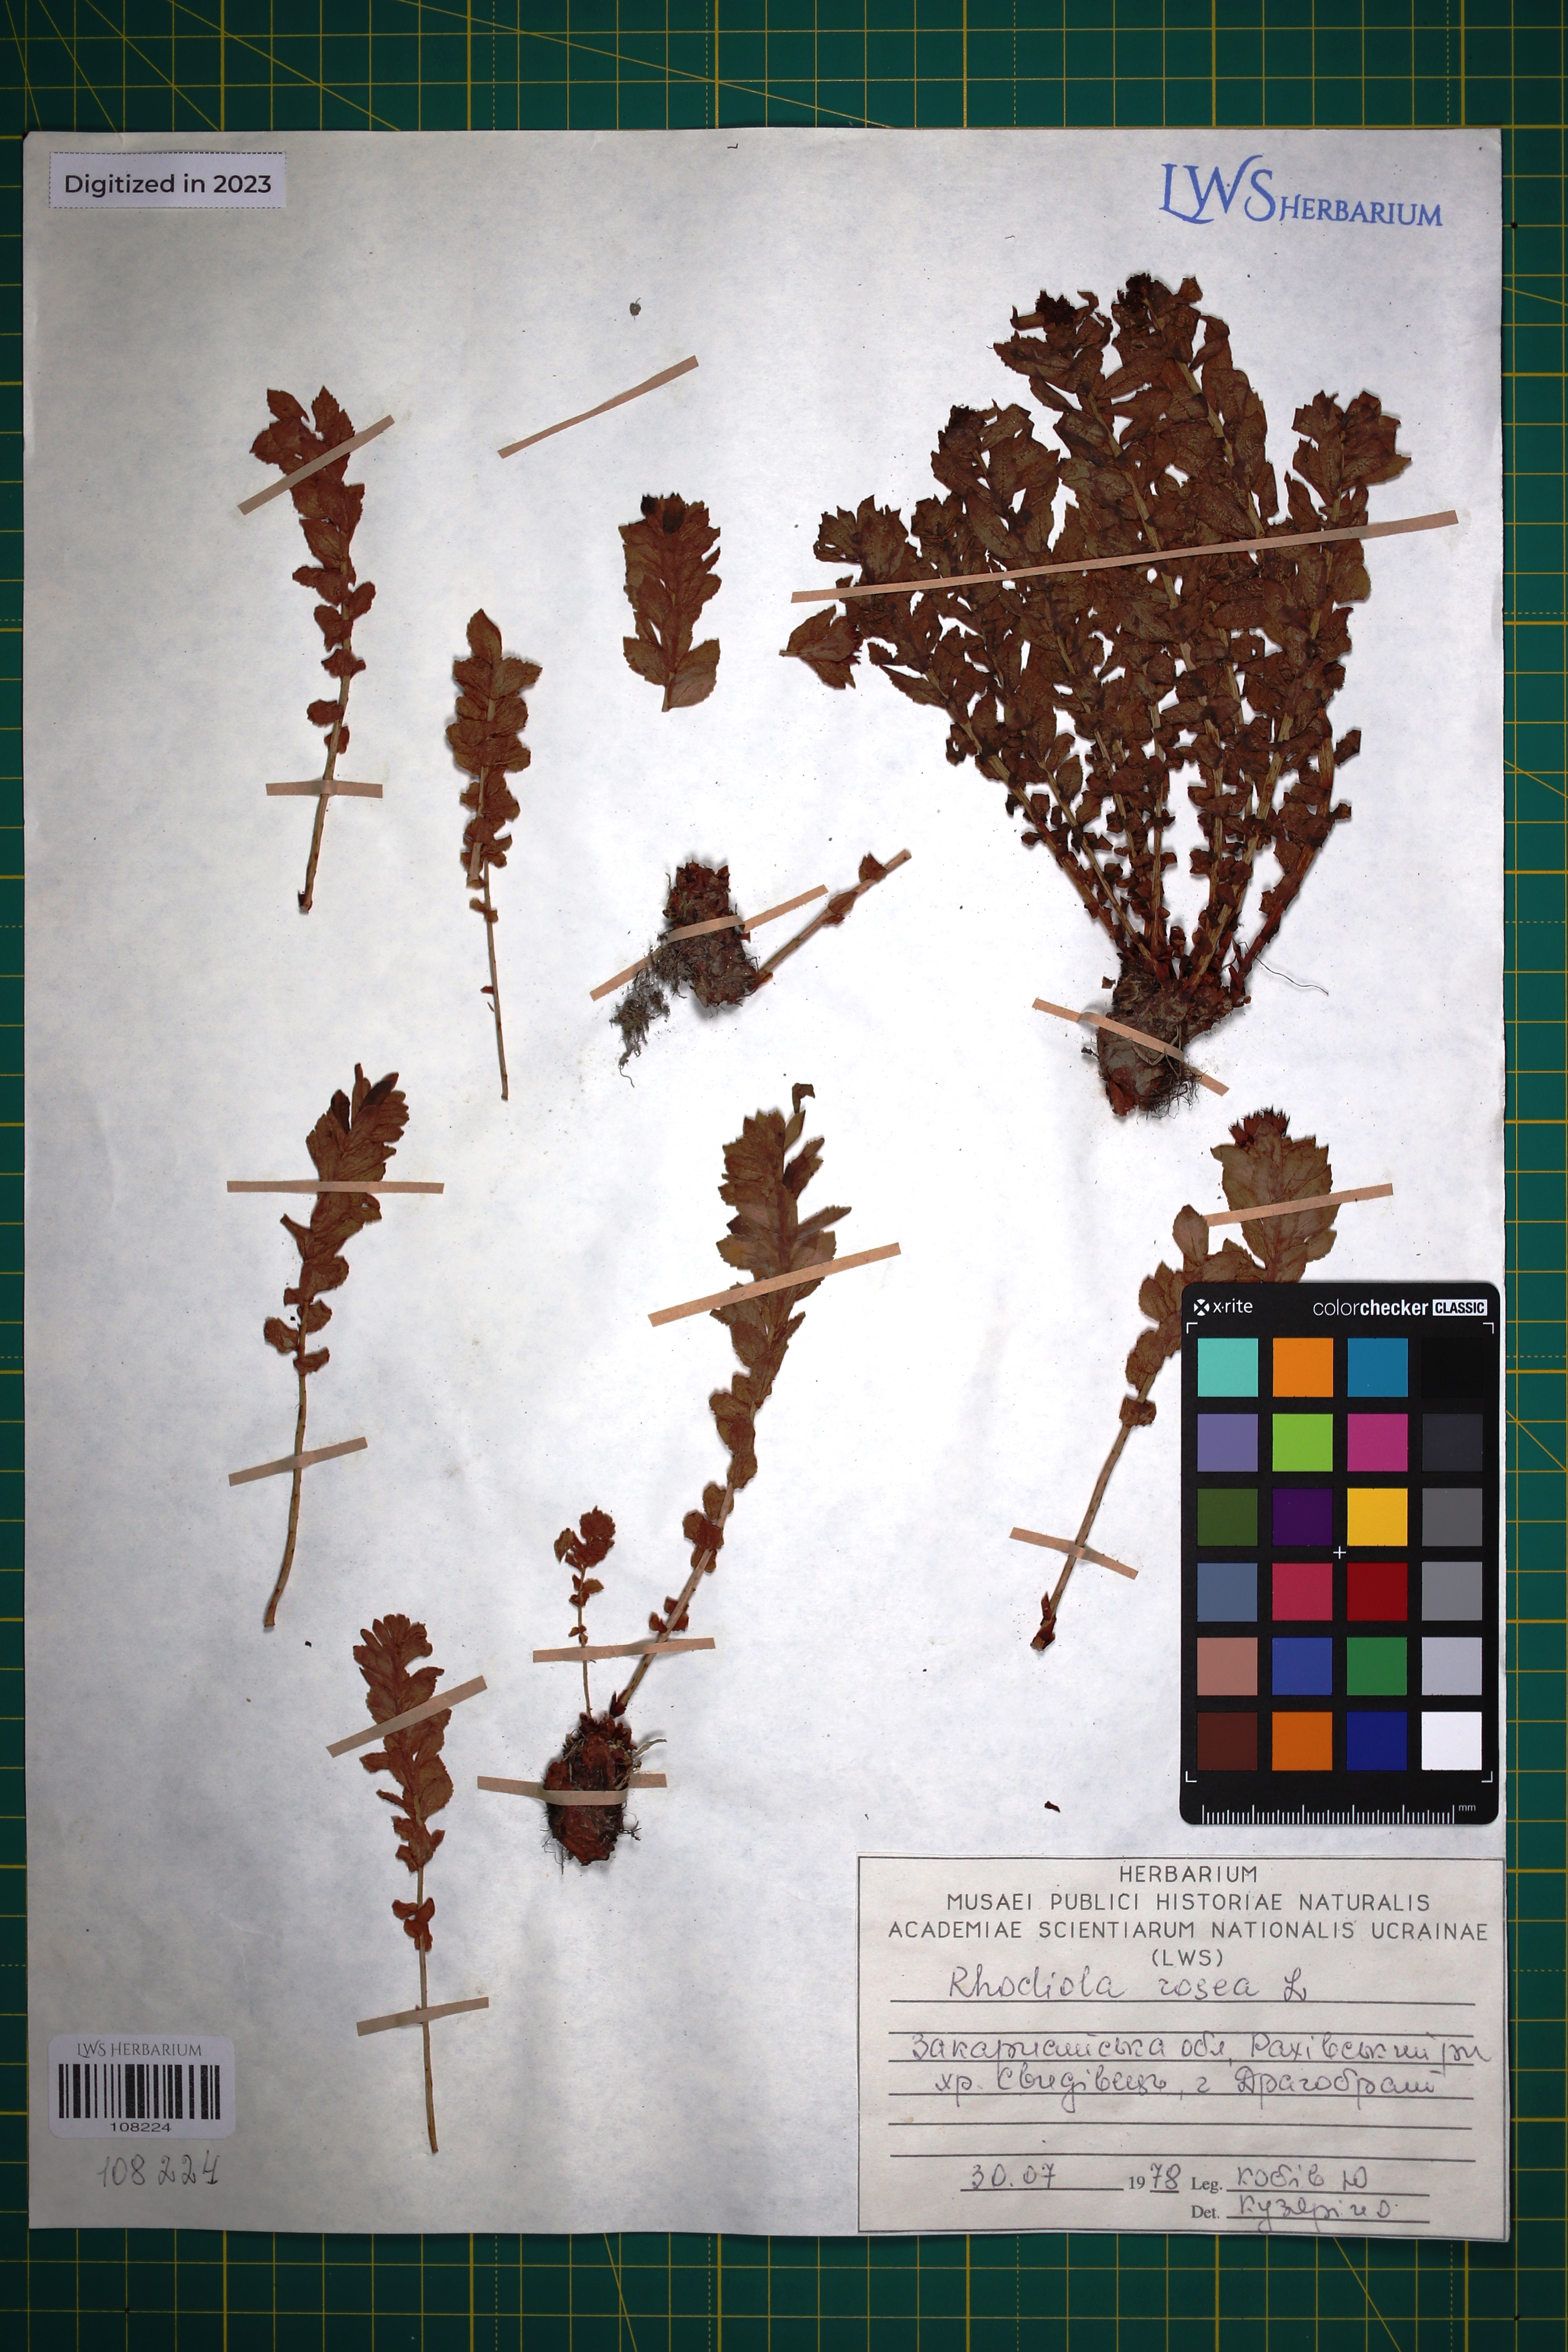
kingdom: Plantae
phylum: Tracheophyta
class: Magnoliopsida
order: Saxifragales
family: Crassulaceae
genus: Rhodiola
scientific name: Rhodiola rosea
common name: Roseroot
